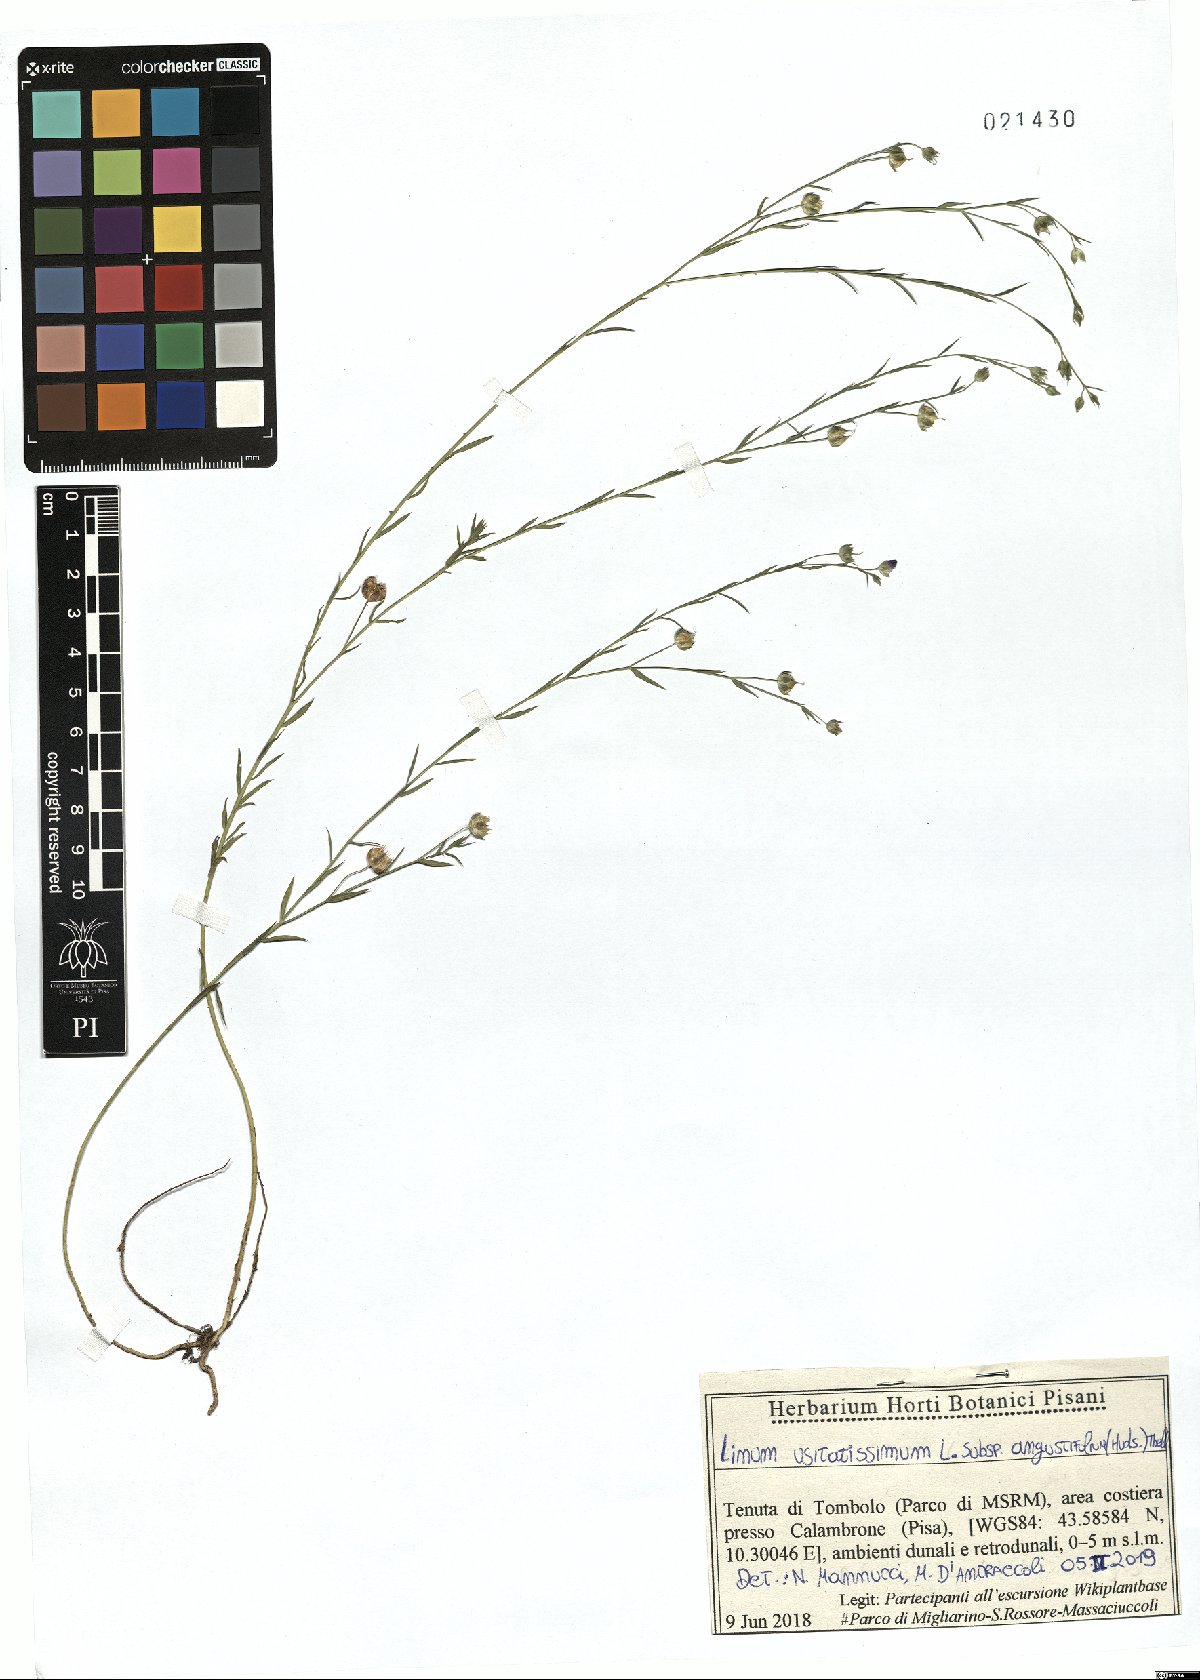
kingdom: Plantae
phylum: Tracheophyta
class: Magnoliopsida
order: Malpighiales
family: Linaceae
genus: Linum
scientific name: Linum bienne
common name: Pale flax
